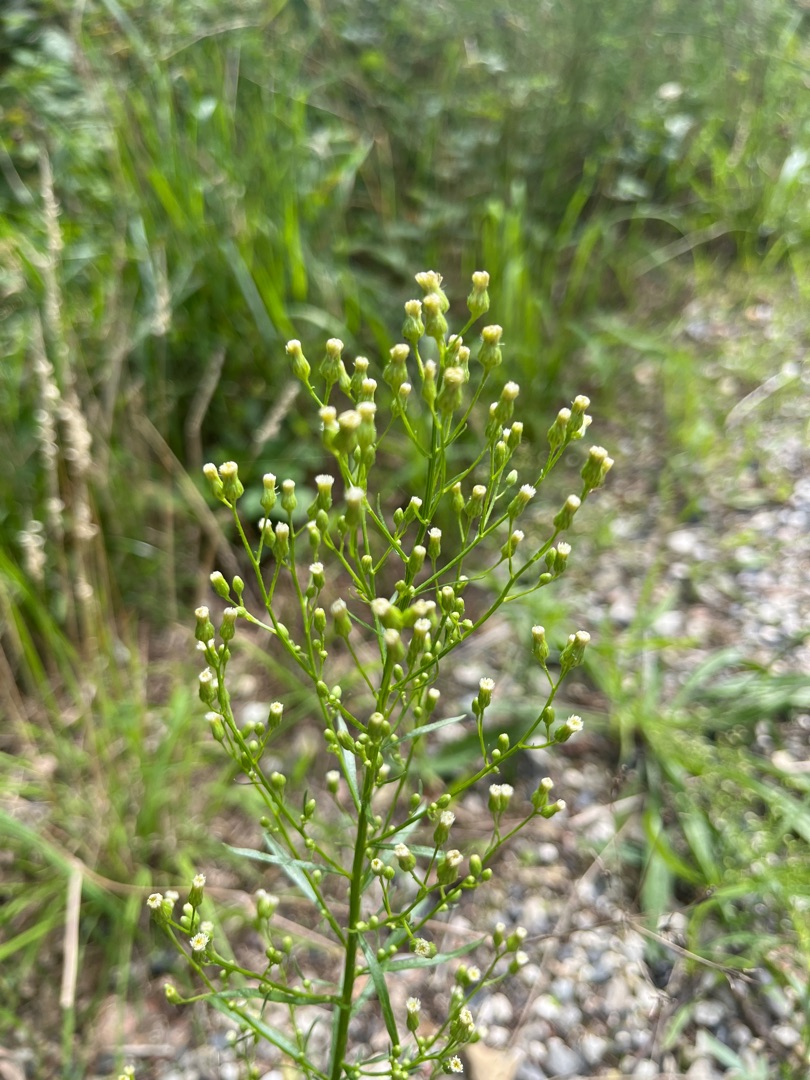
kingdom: Plantae
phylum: Tracheophyta
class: Magnoliopsida
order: Asterales
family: Asteraceae
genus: Erigeron
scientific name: Erigeron canadensis
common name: Kanadisk bakkestjerne
